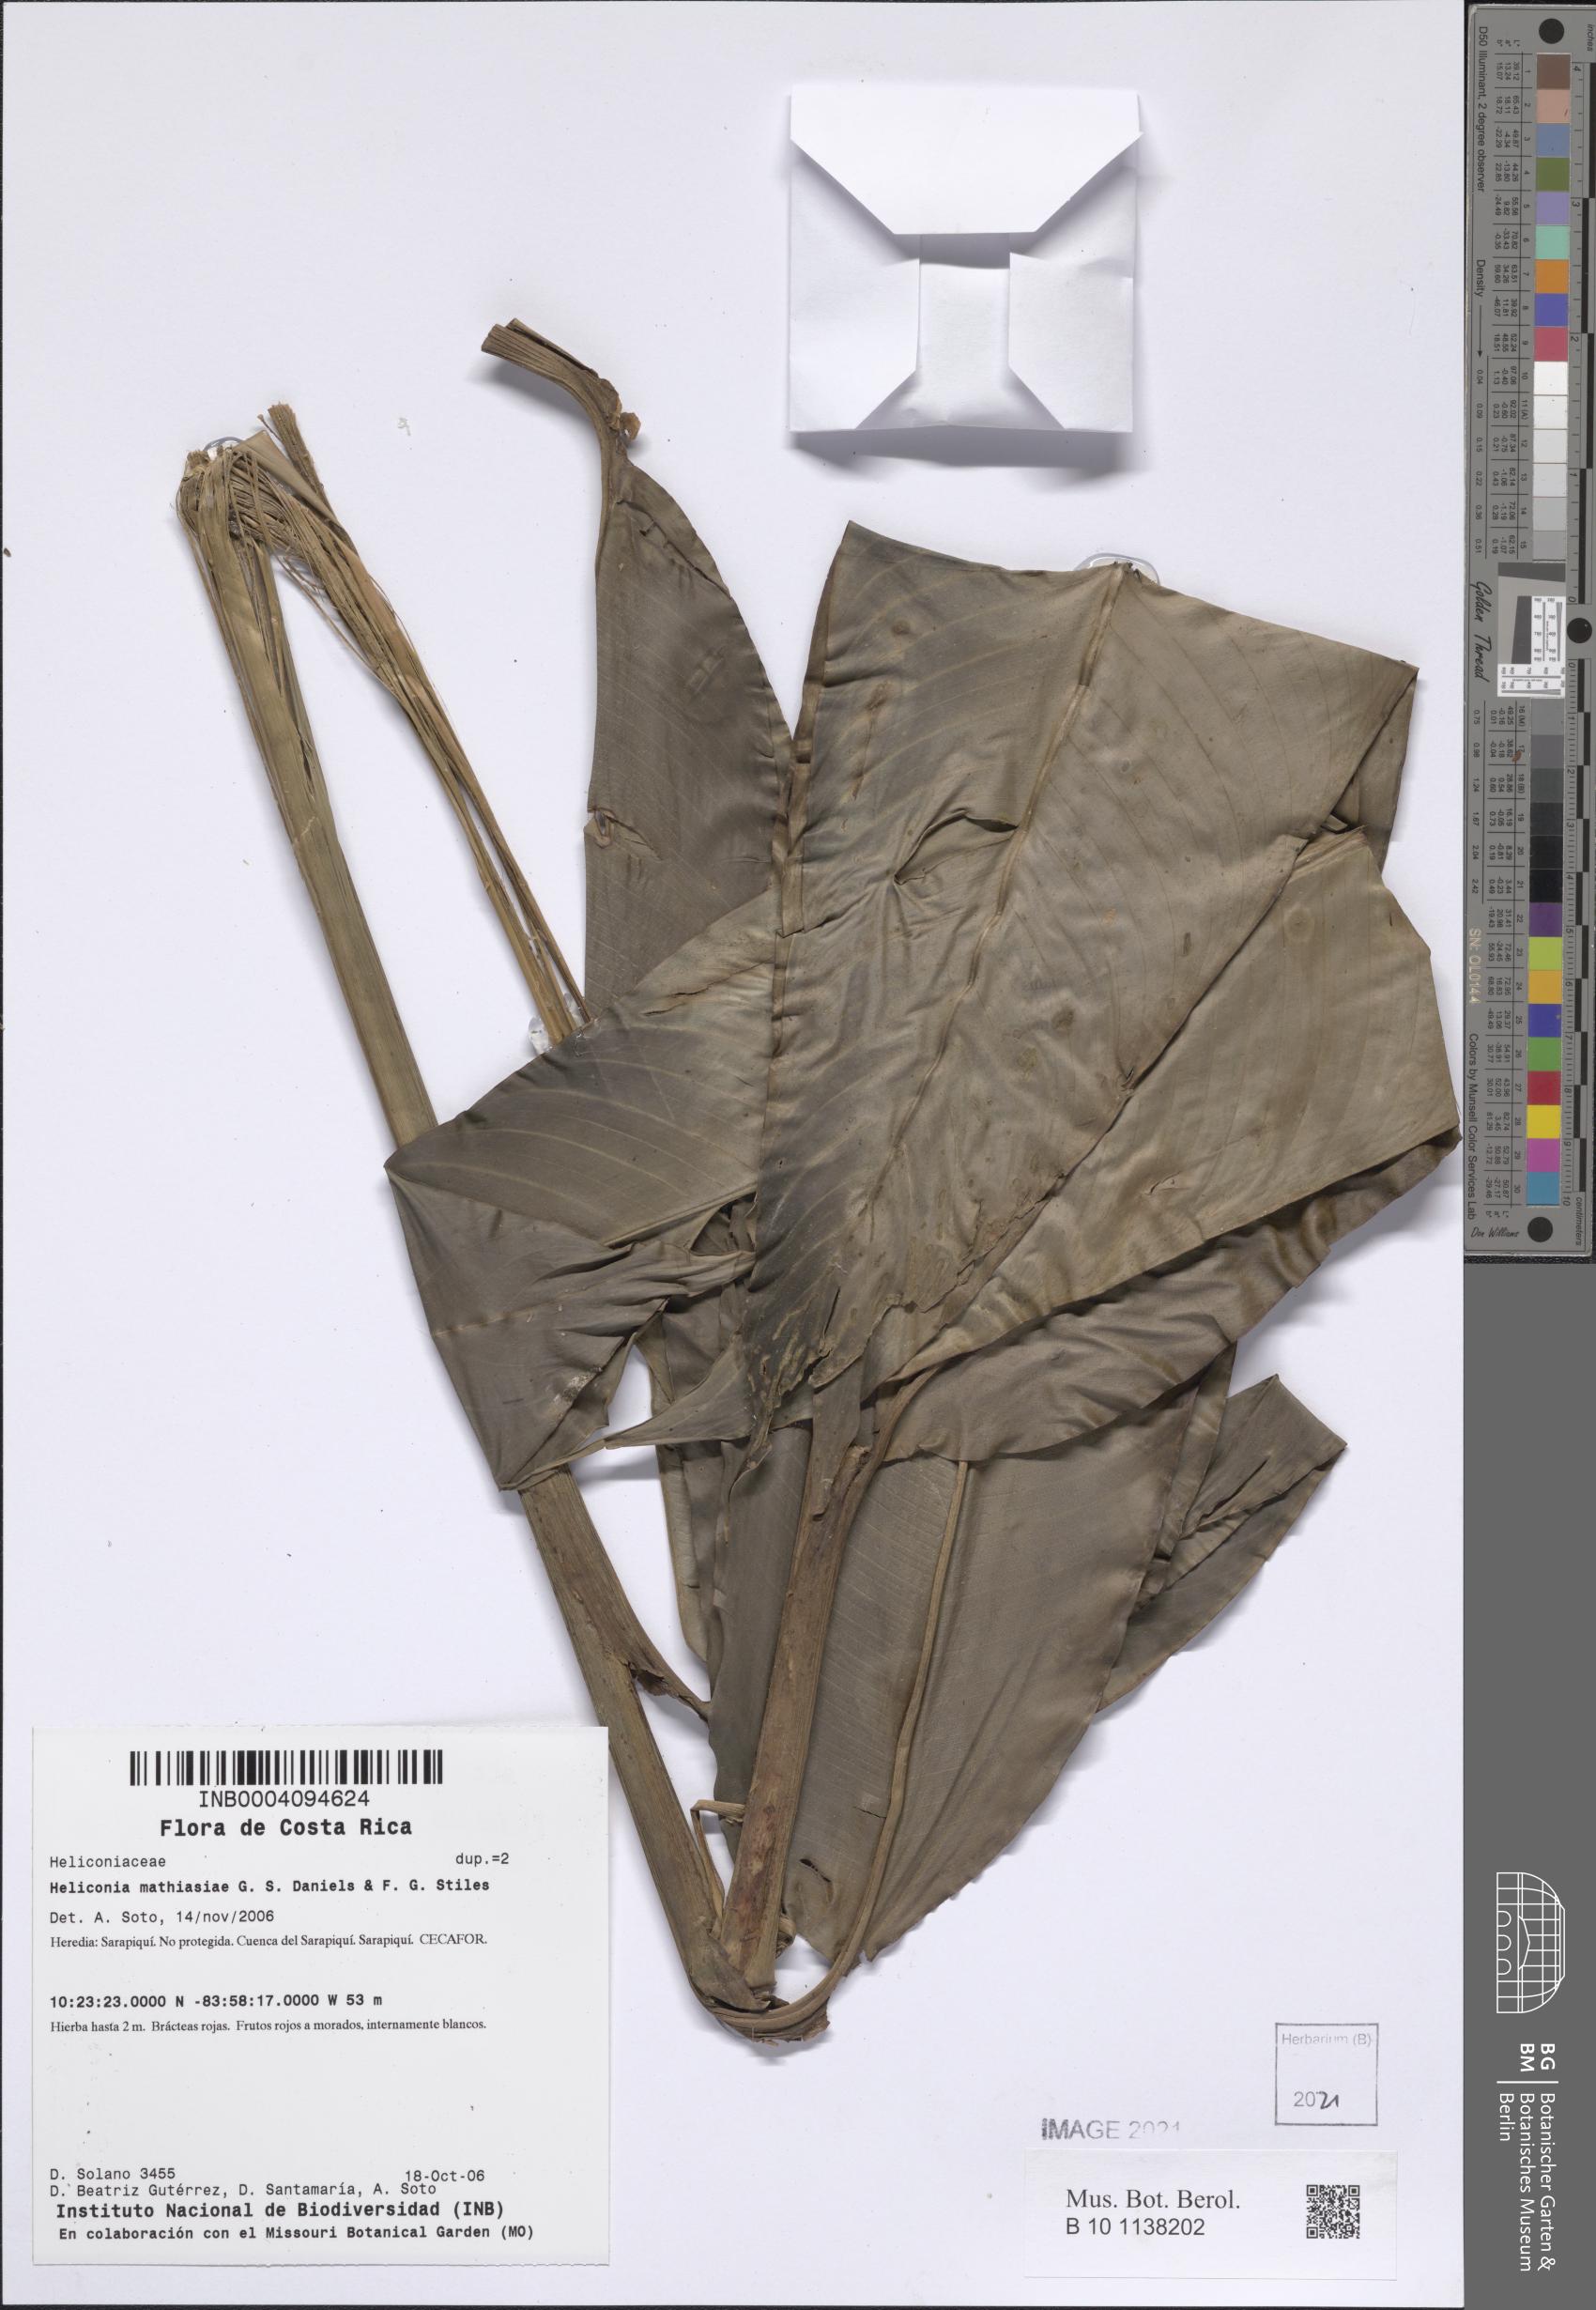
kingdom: Plantae
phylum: Tracheophyta
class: Liliopsida
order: Zingiberales
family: Heliconiaceae
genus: Heliconia
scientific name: Heliconia mathiasiae
